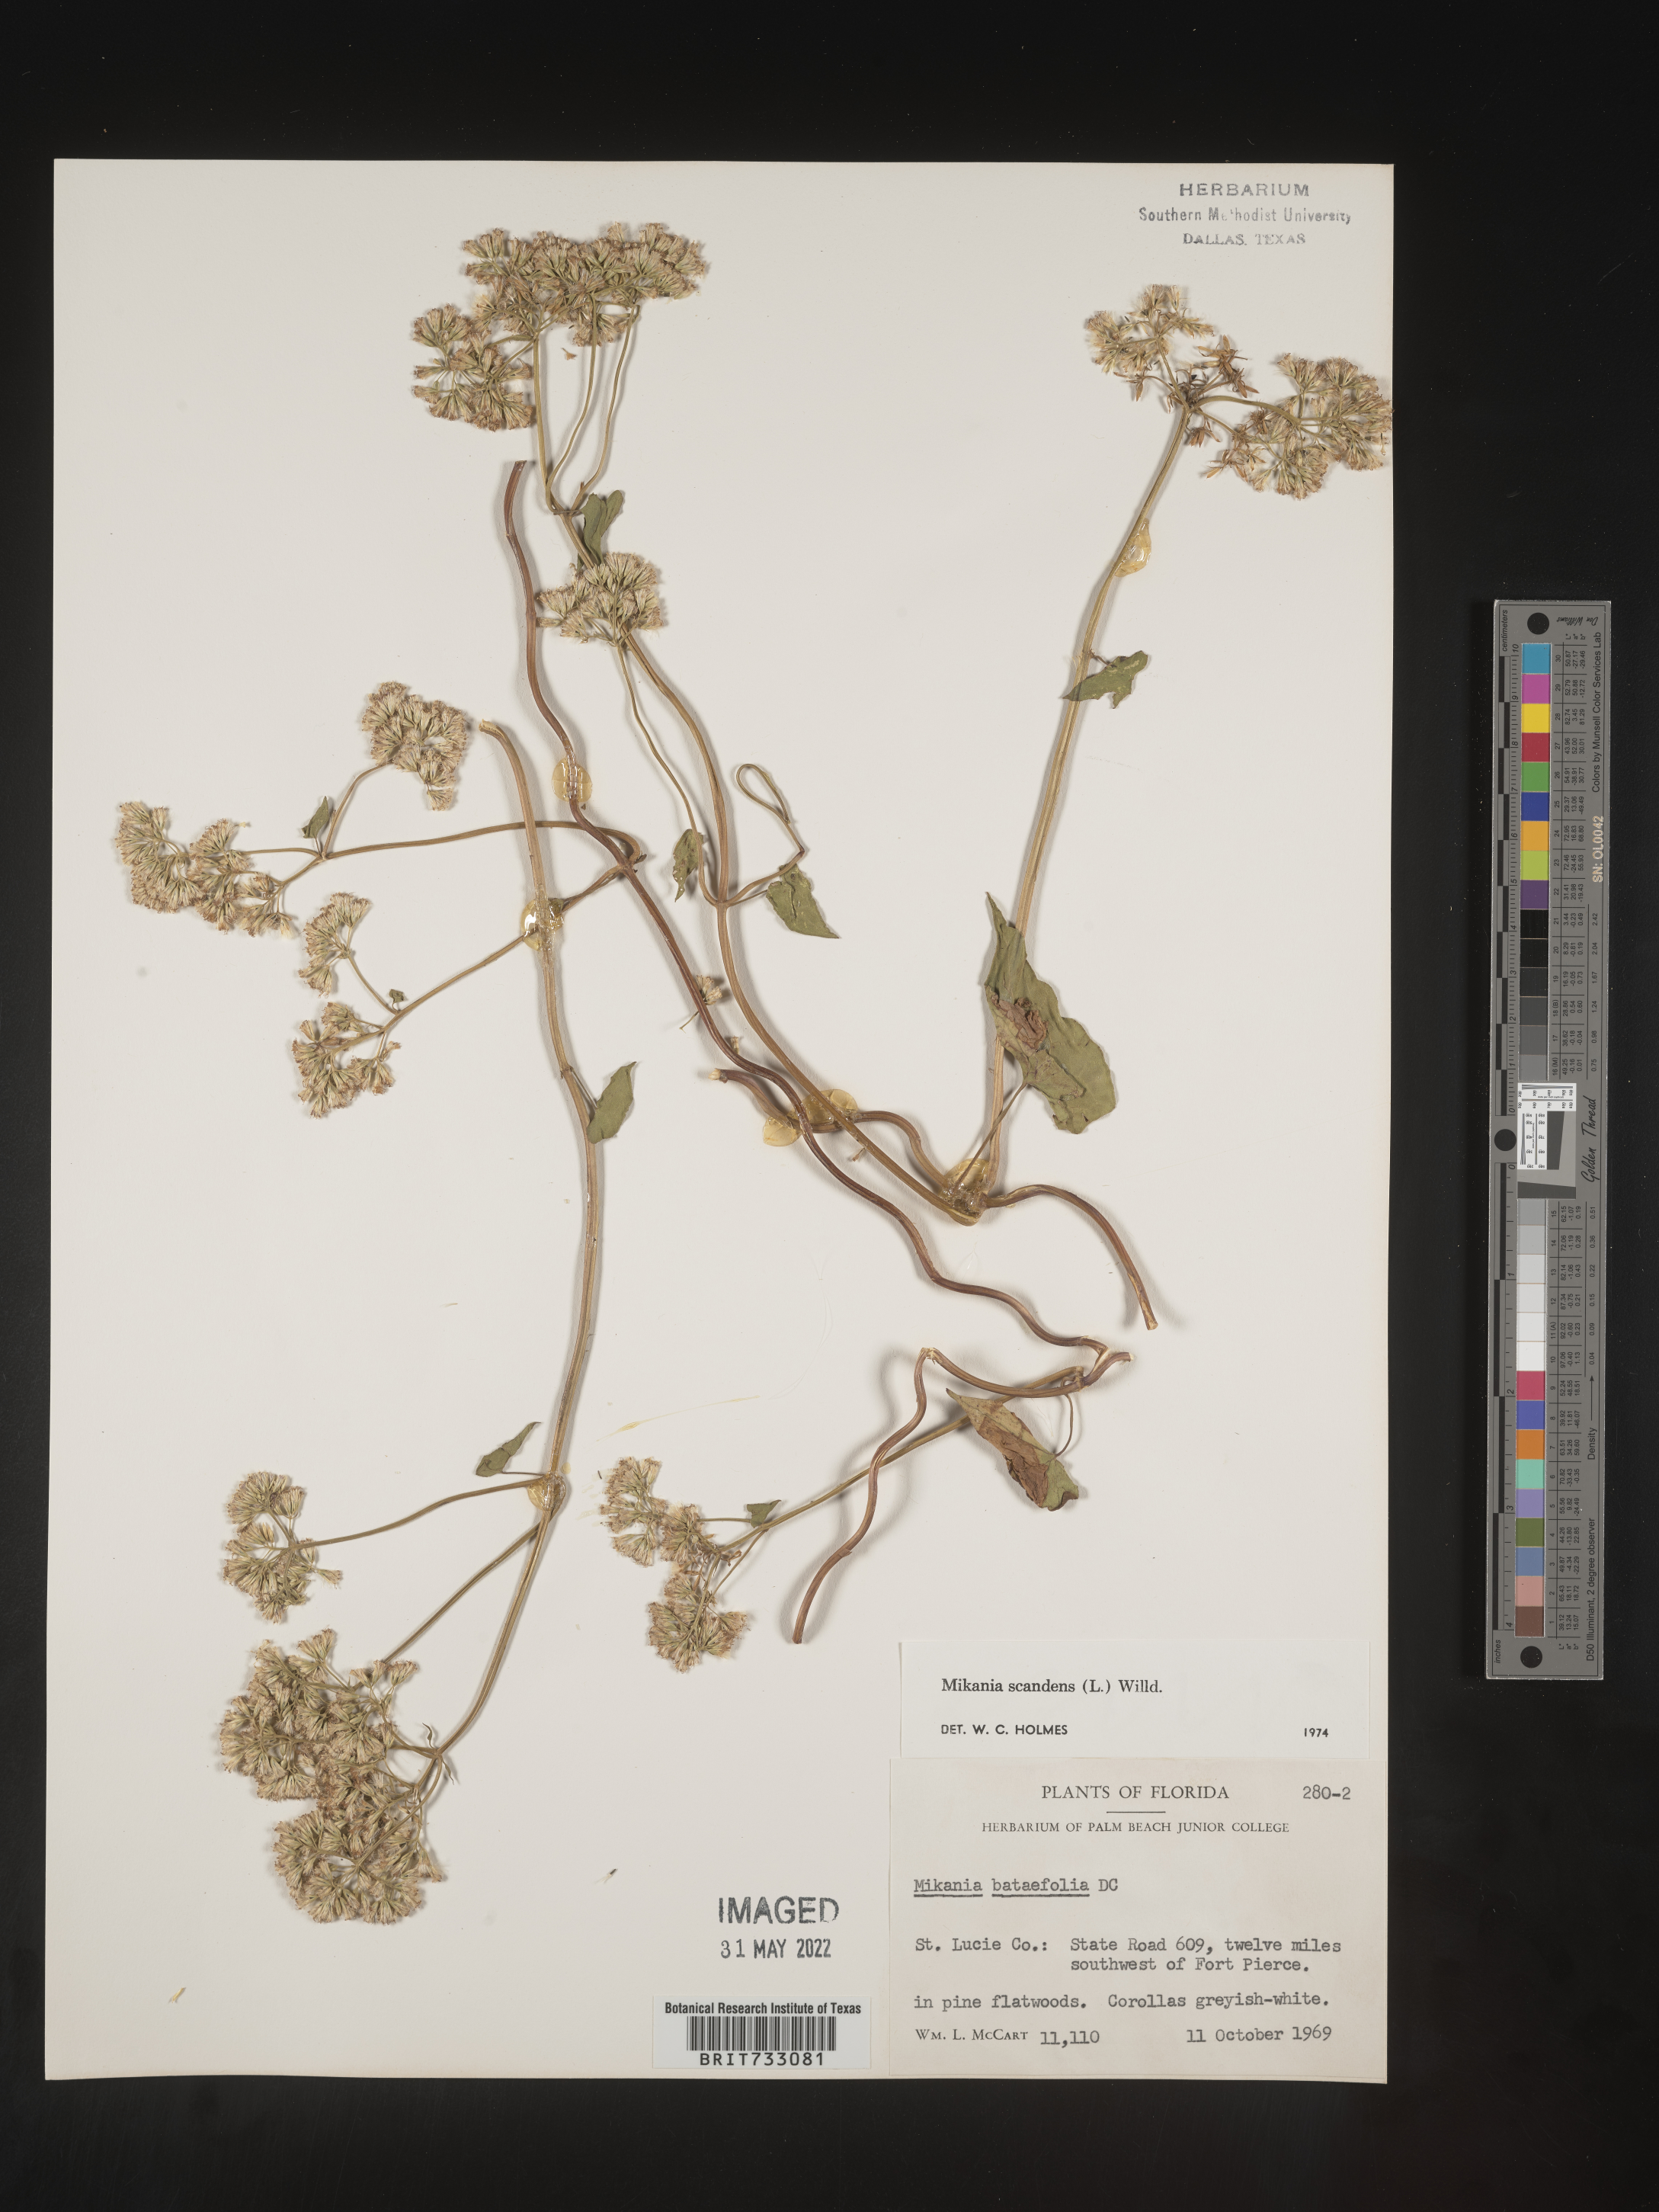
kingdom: Plantae
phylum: Tracheophyta
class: Magnoliopsida
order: Asterales
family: Asteraceae
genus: Mikania
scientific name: Mikania scandens
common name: Climbing hempvine
